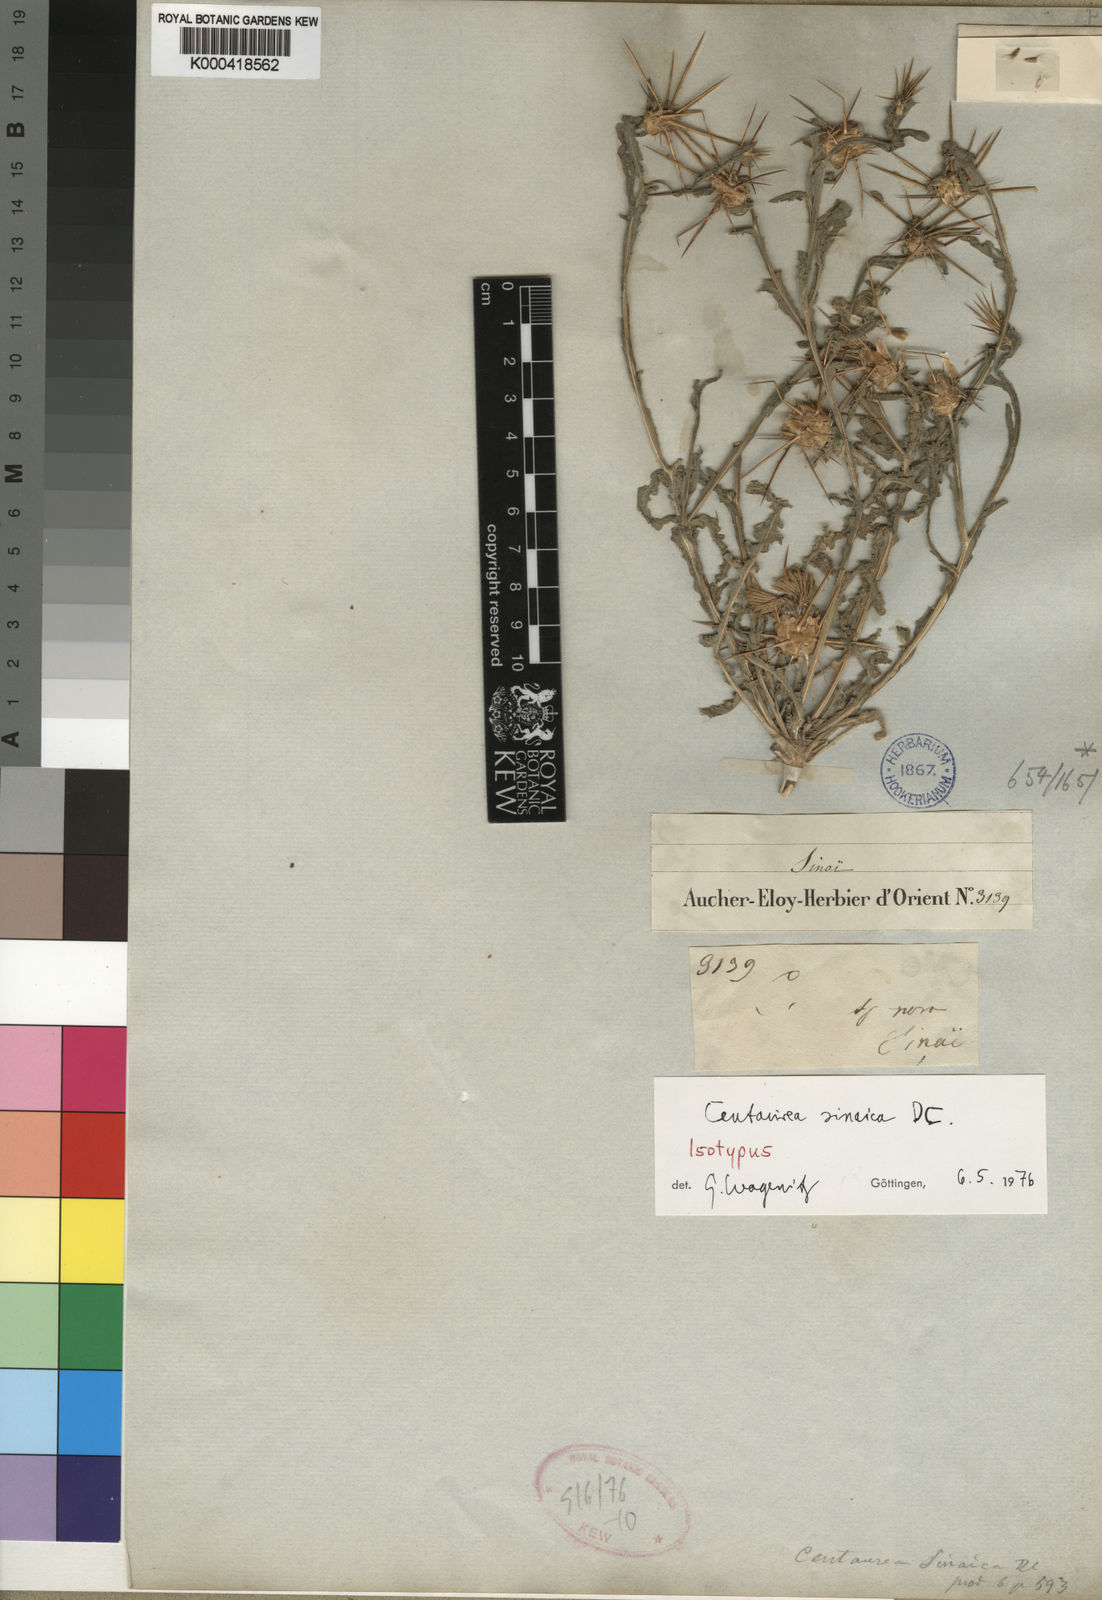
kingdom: Plantae
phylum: Tracheophyta
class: Magnoliopsida
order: Asterales
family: Asteraceae
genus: Centaurea
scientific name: Centaurea sinaica
